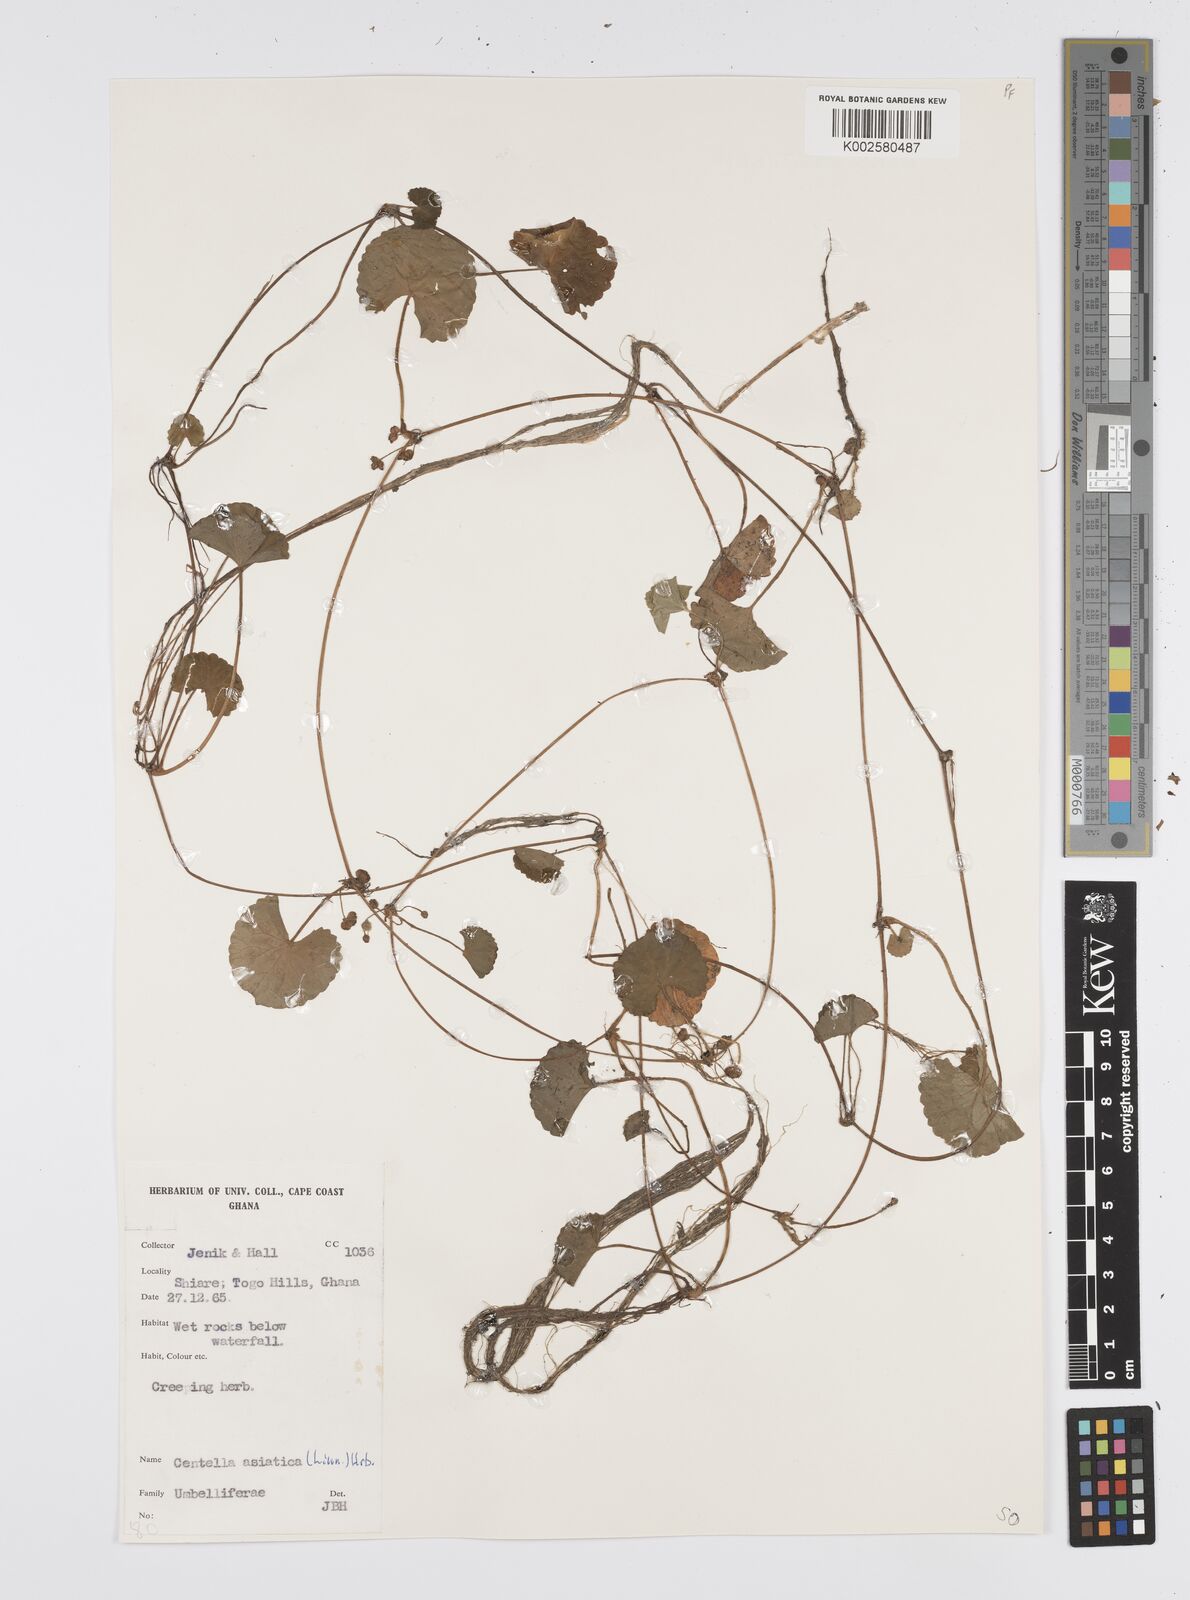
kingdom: Plantae
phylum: Tracheophyta
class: Magnoliopsida
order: Apiales
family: Apiaceae
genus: Centella
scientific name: Centella asiatica
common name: Spadeleaf
